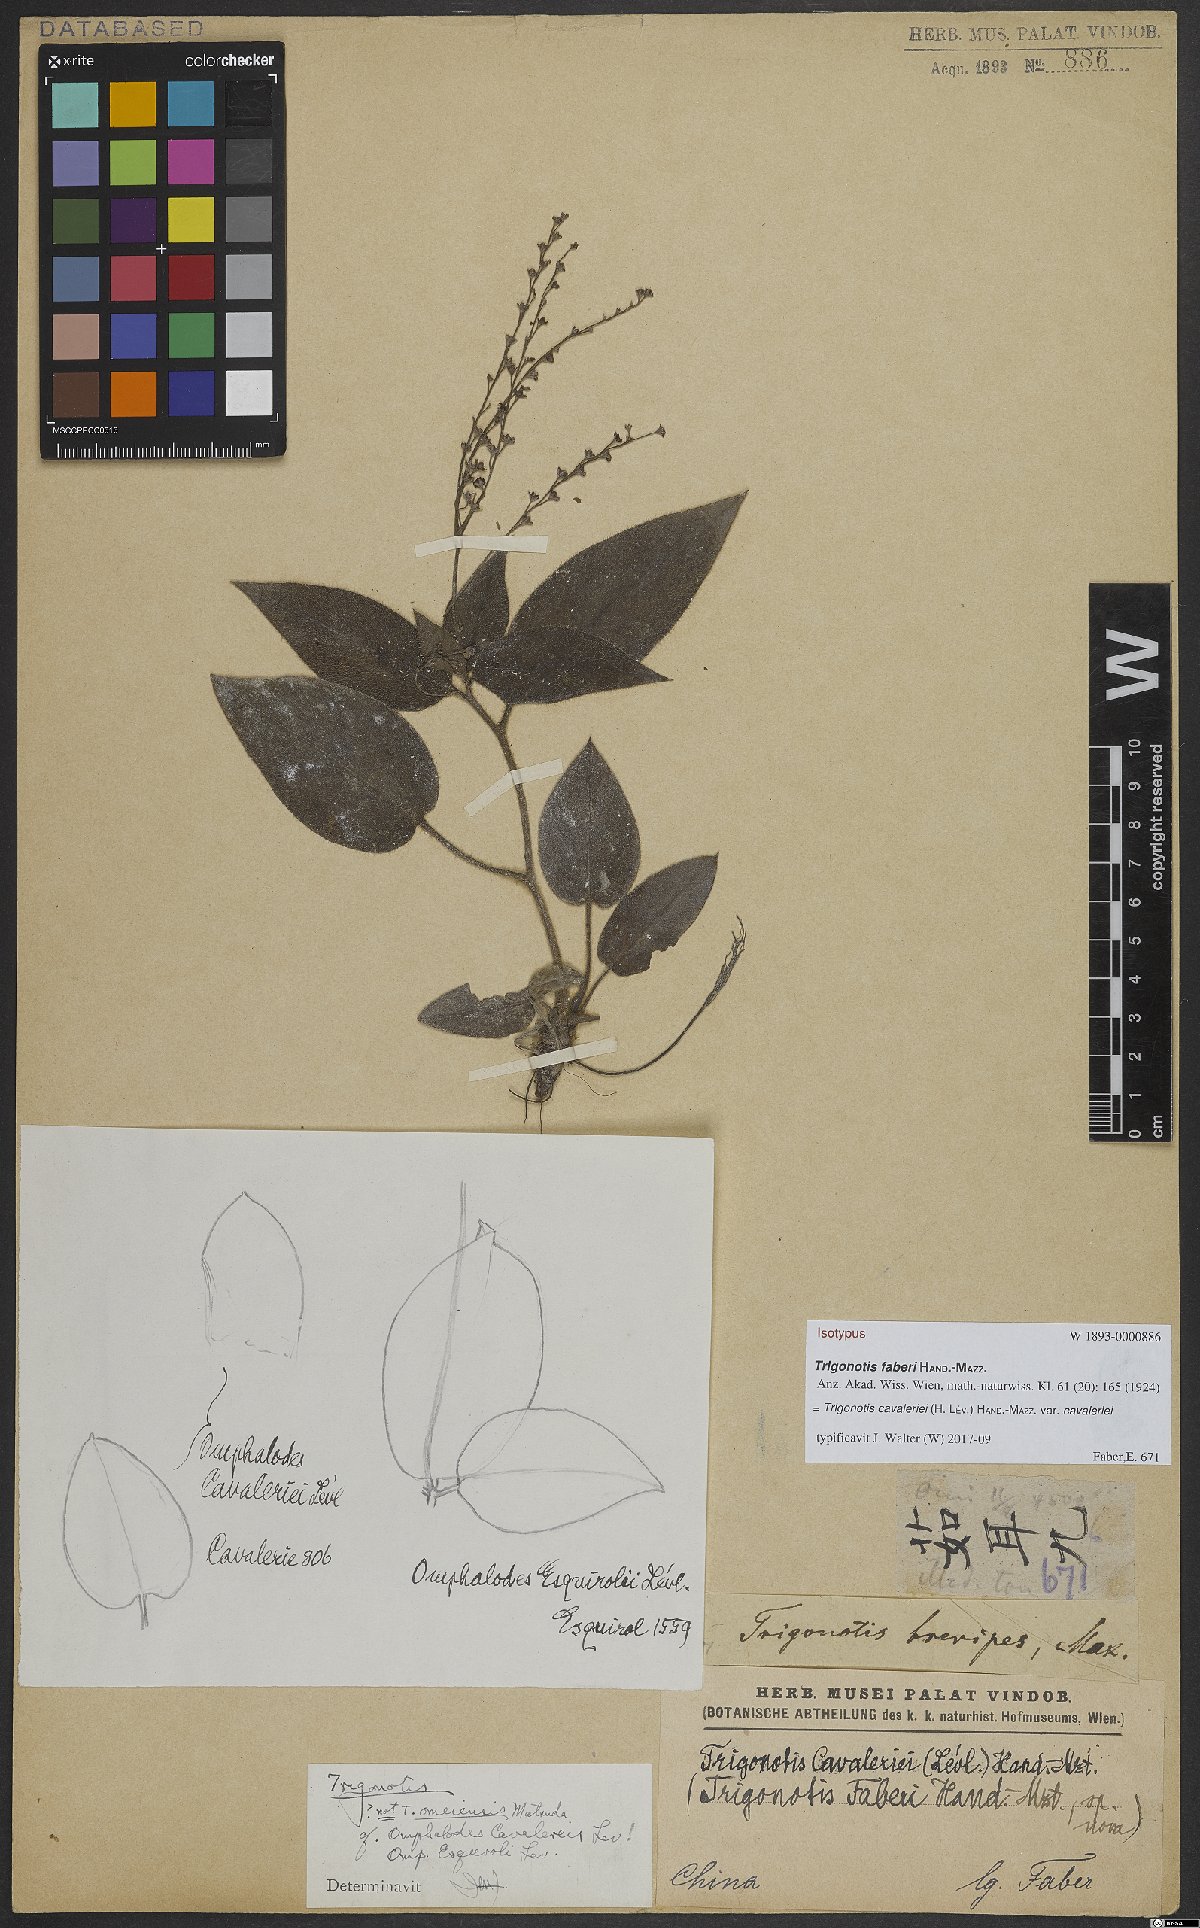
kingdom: Plantae
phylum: Tracheophyta
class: Magnoliopsida
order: Boraginales
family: Boraginaceae
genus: Trigonotis
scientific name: Trigonotis cavaleriei
